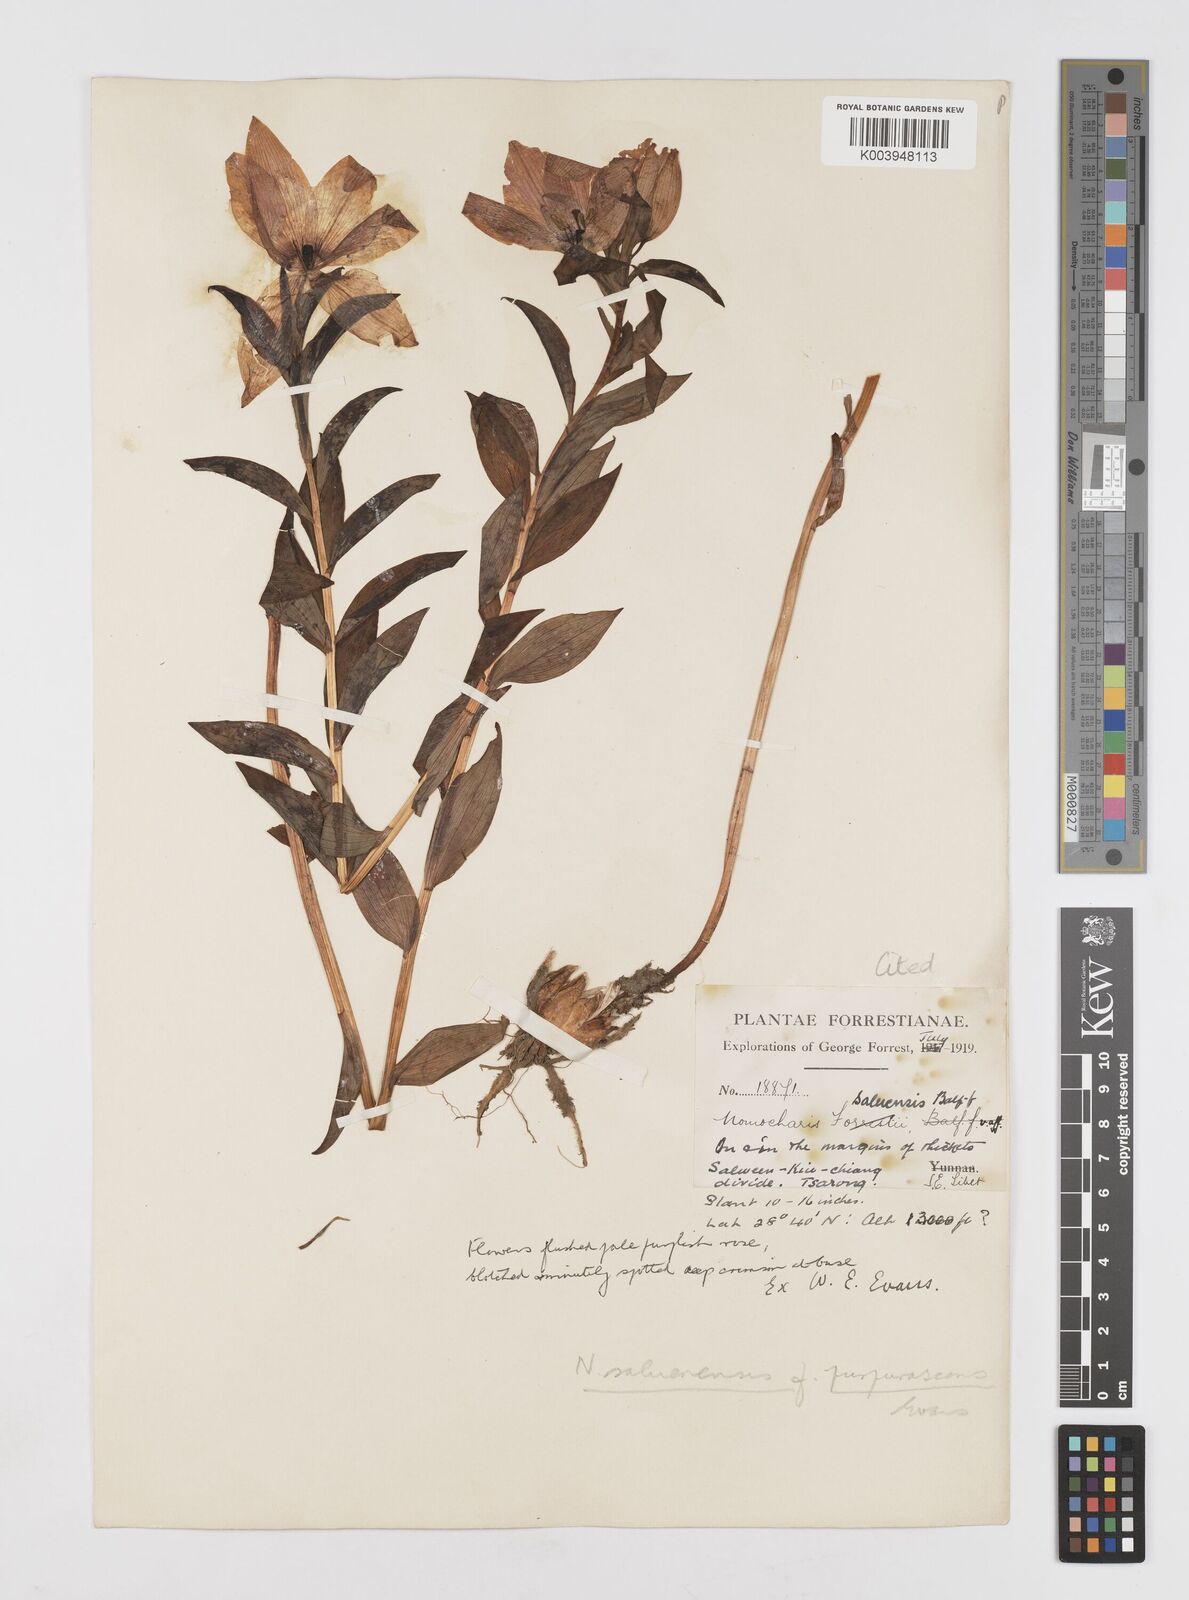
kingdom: Plantae
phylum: Tracheophyta
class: Liliopsida
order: Liliales
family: Liliaceae
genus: Lilium
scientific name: Lilium saluenense
